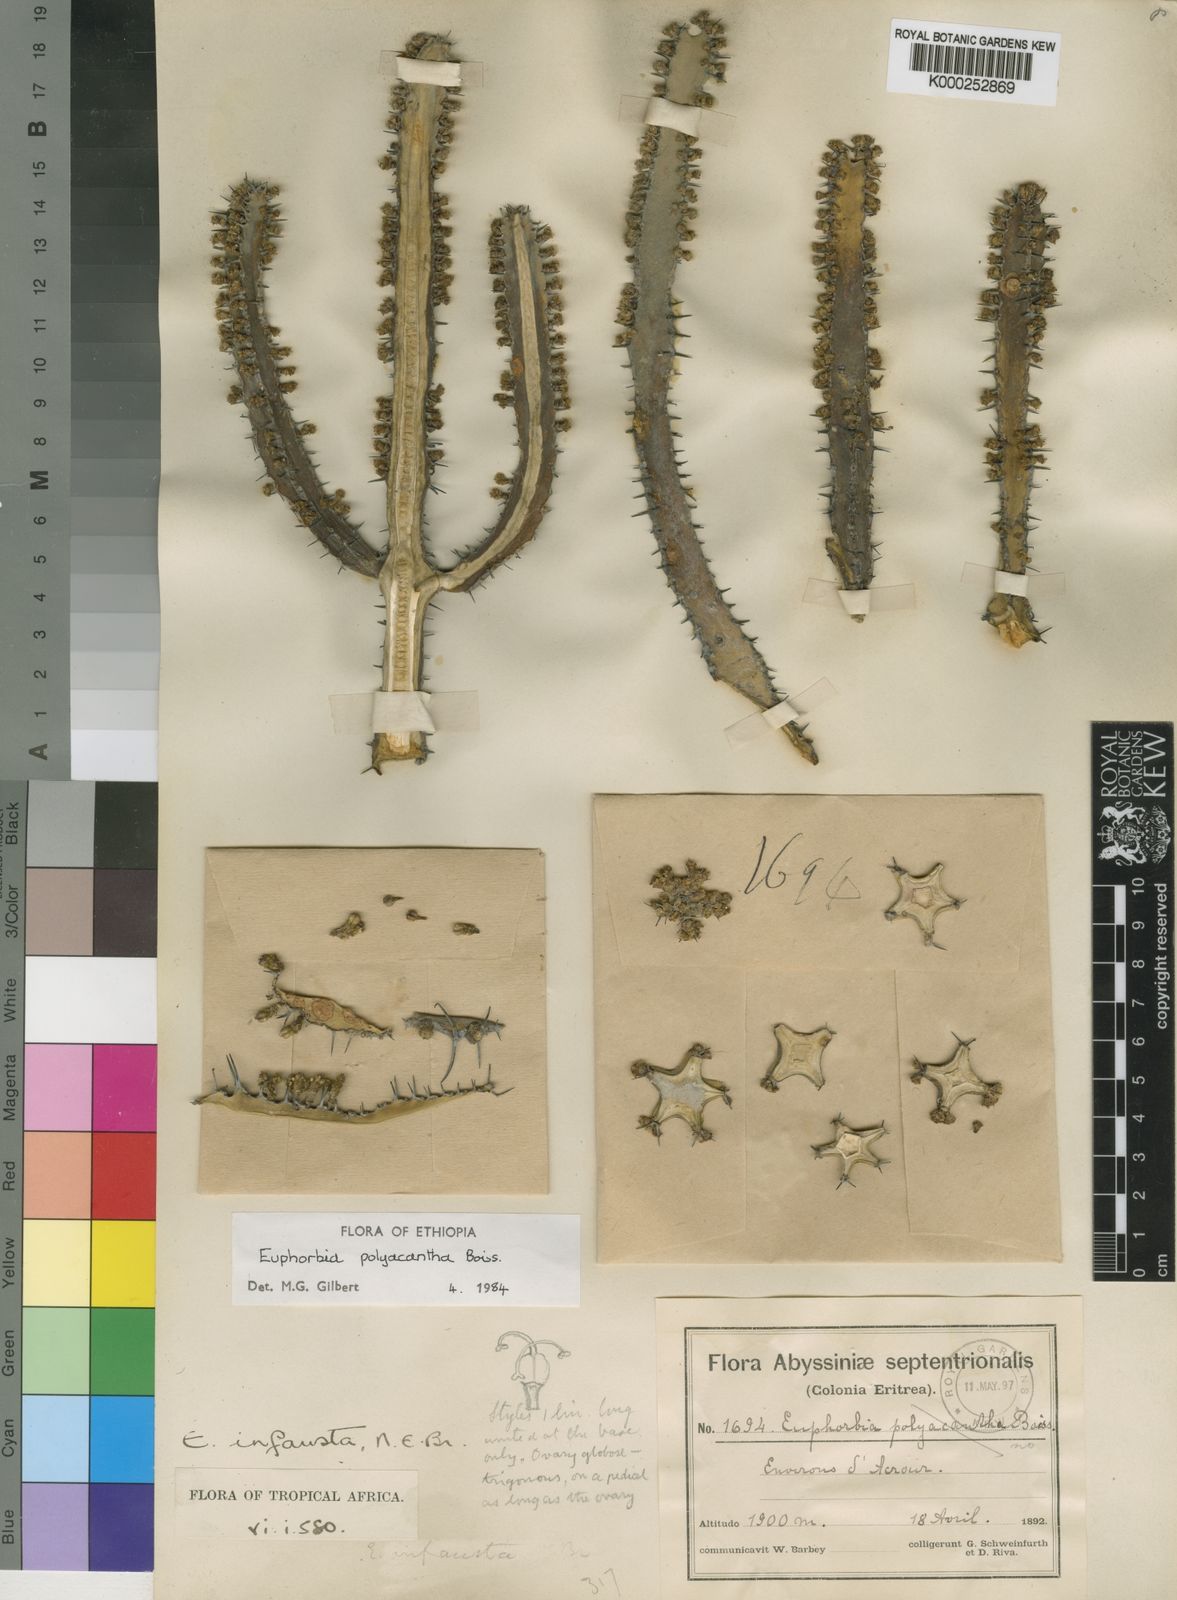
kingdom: Plantae
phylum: Tracheophyta
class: Magnoliopsida
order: Malpighiales
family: Euphorbiaceae
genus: Euphorbia
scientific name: Euphorbia polyacantha
